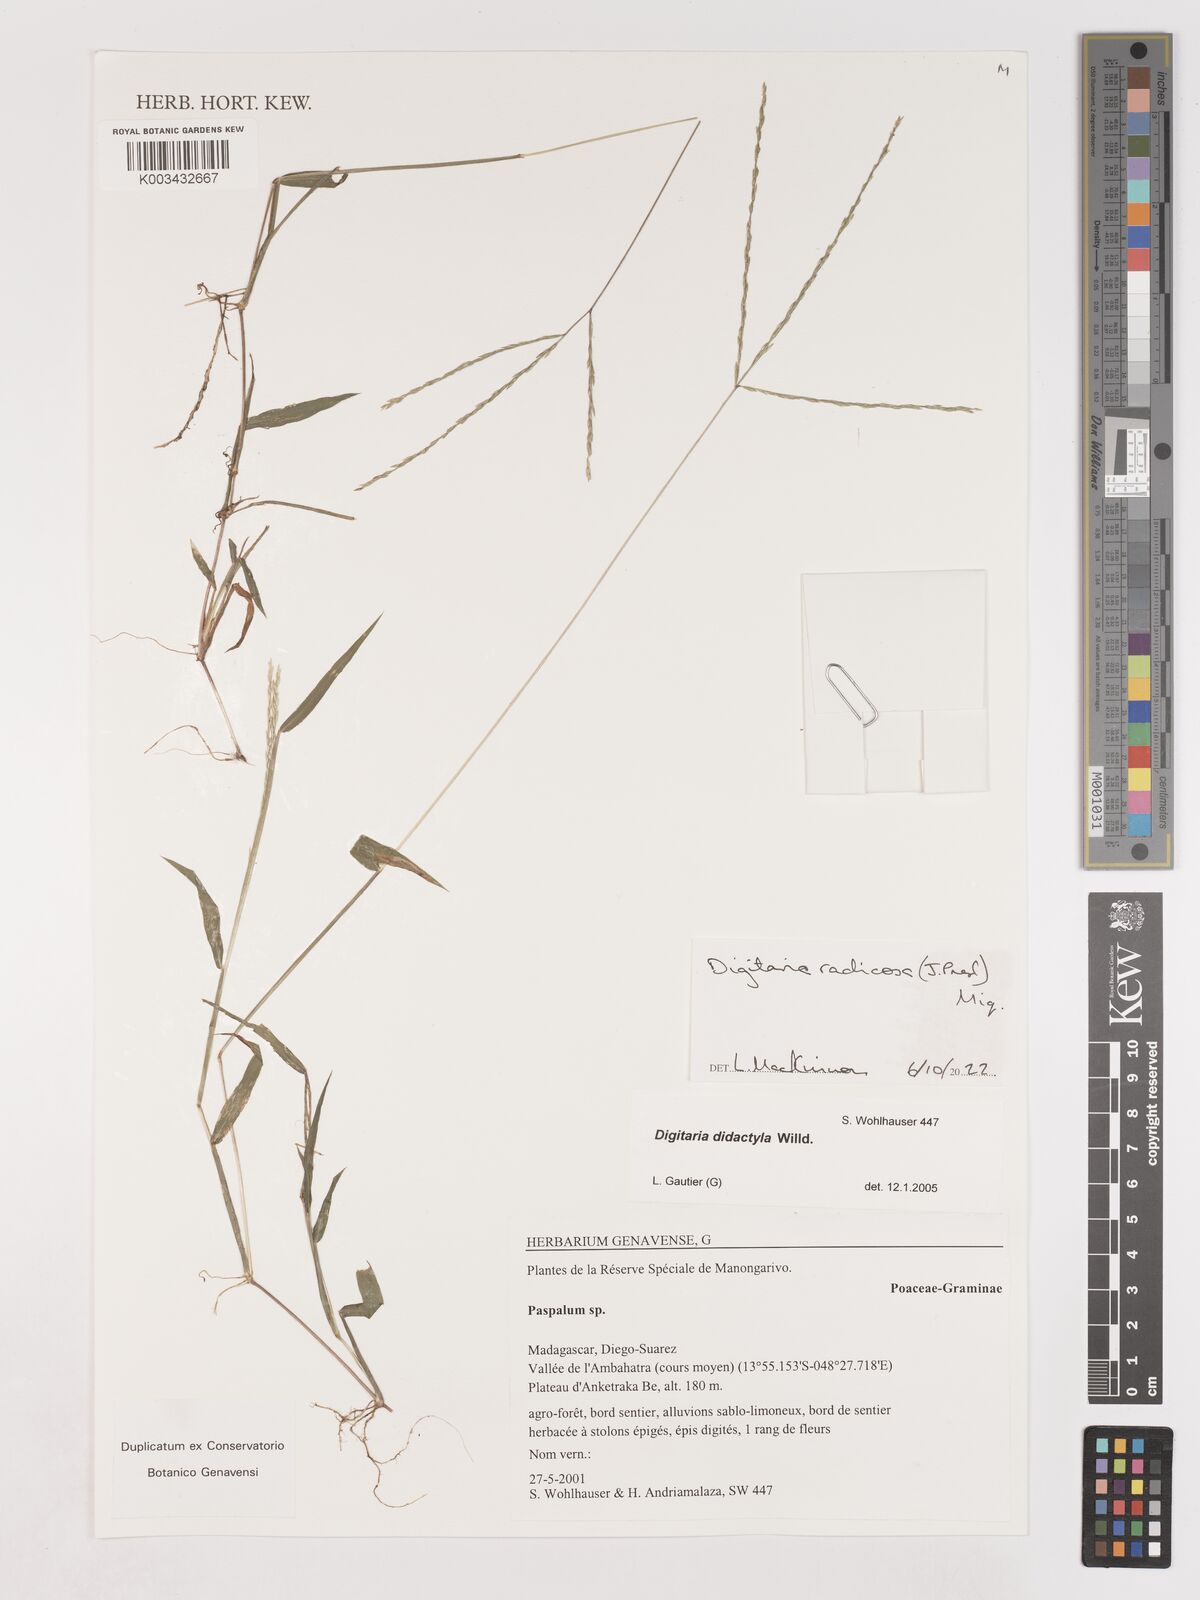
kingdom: Plantae
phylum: Tracheophyta
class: Liliopsida
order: Poales
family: Poaceae
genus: Digitaria
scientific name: Digitaria radicosa
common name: Trailing crabgrass
